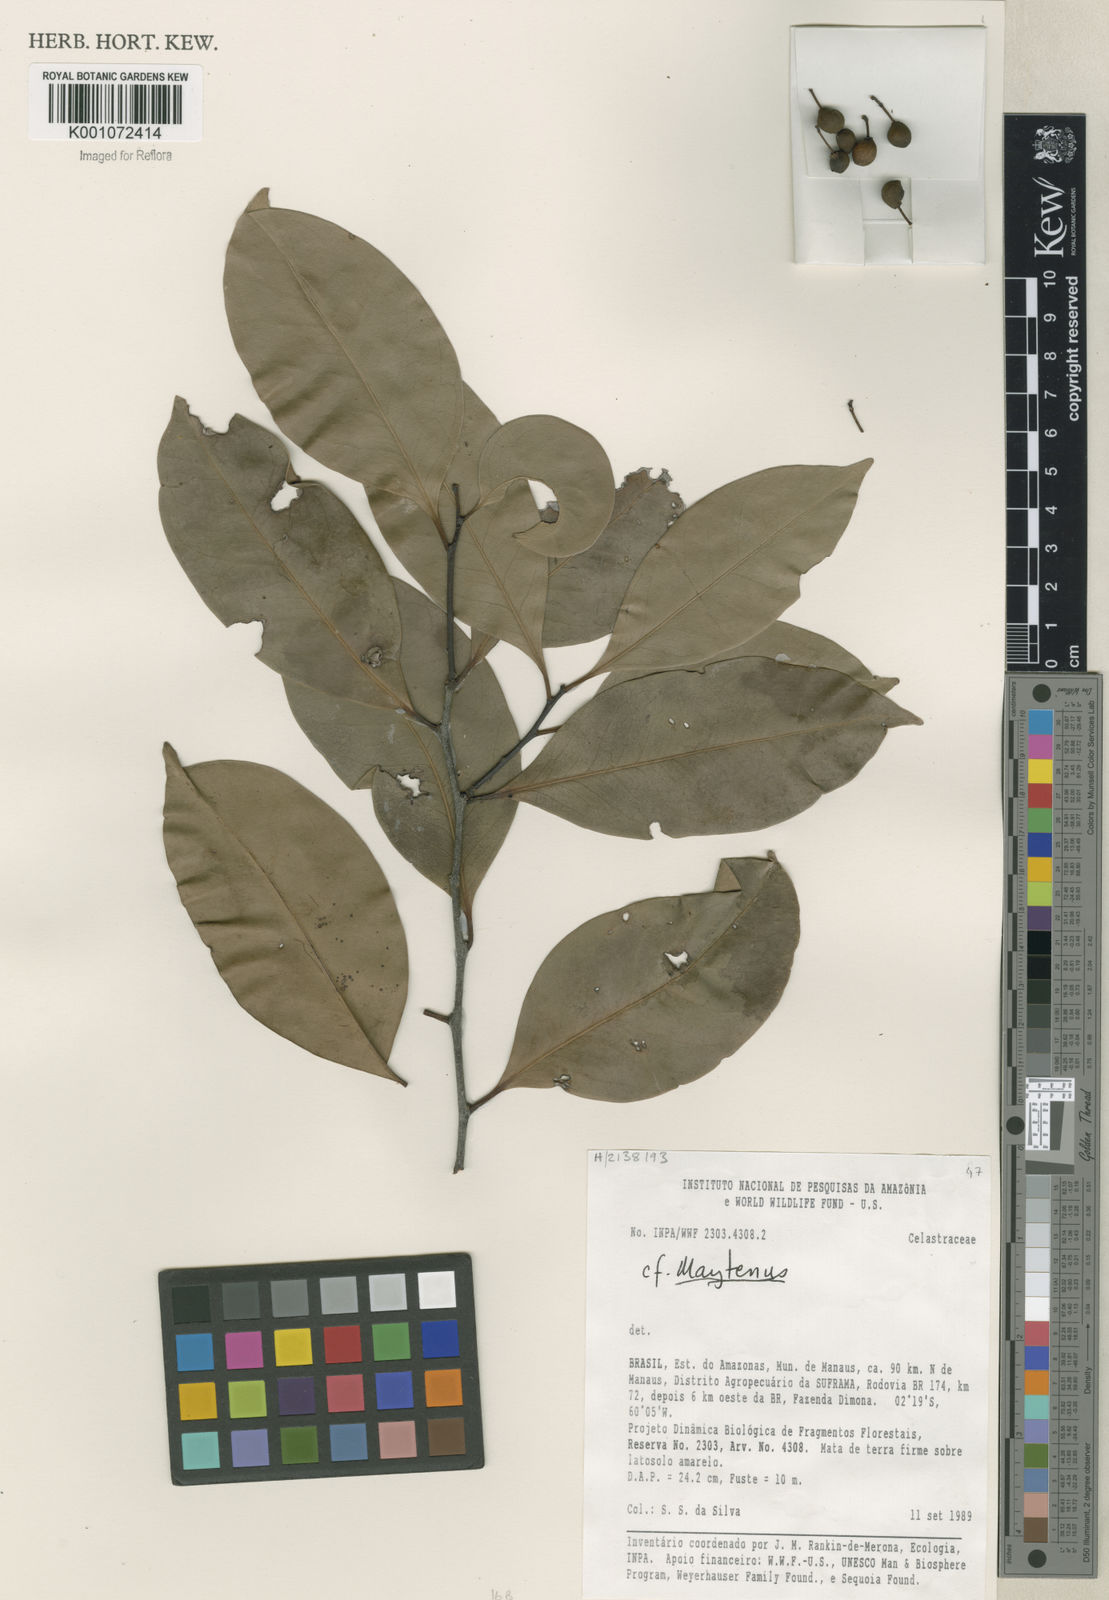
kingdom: Plantae
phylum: Tracheophyta
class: Magnoliopsida
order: Celastrales
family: Celastraceae
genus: Maytenus
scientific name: Maytenus
